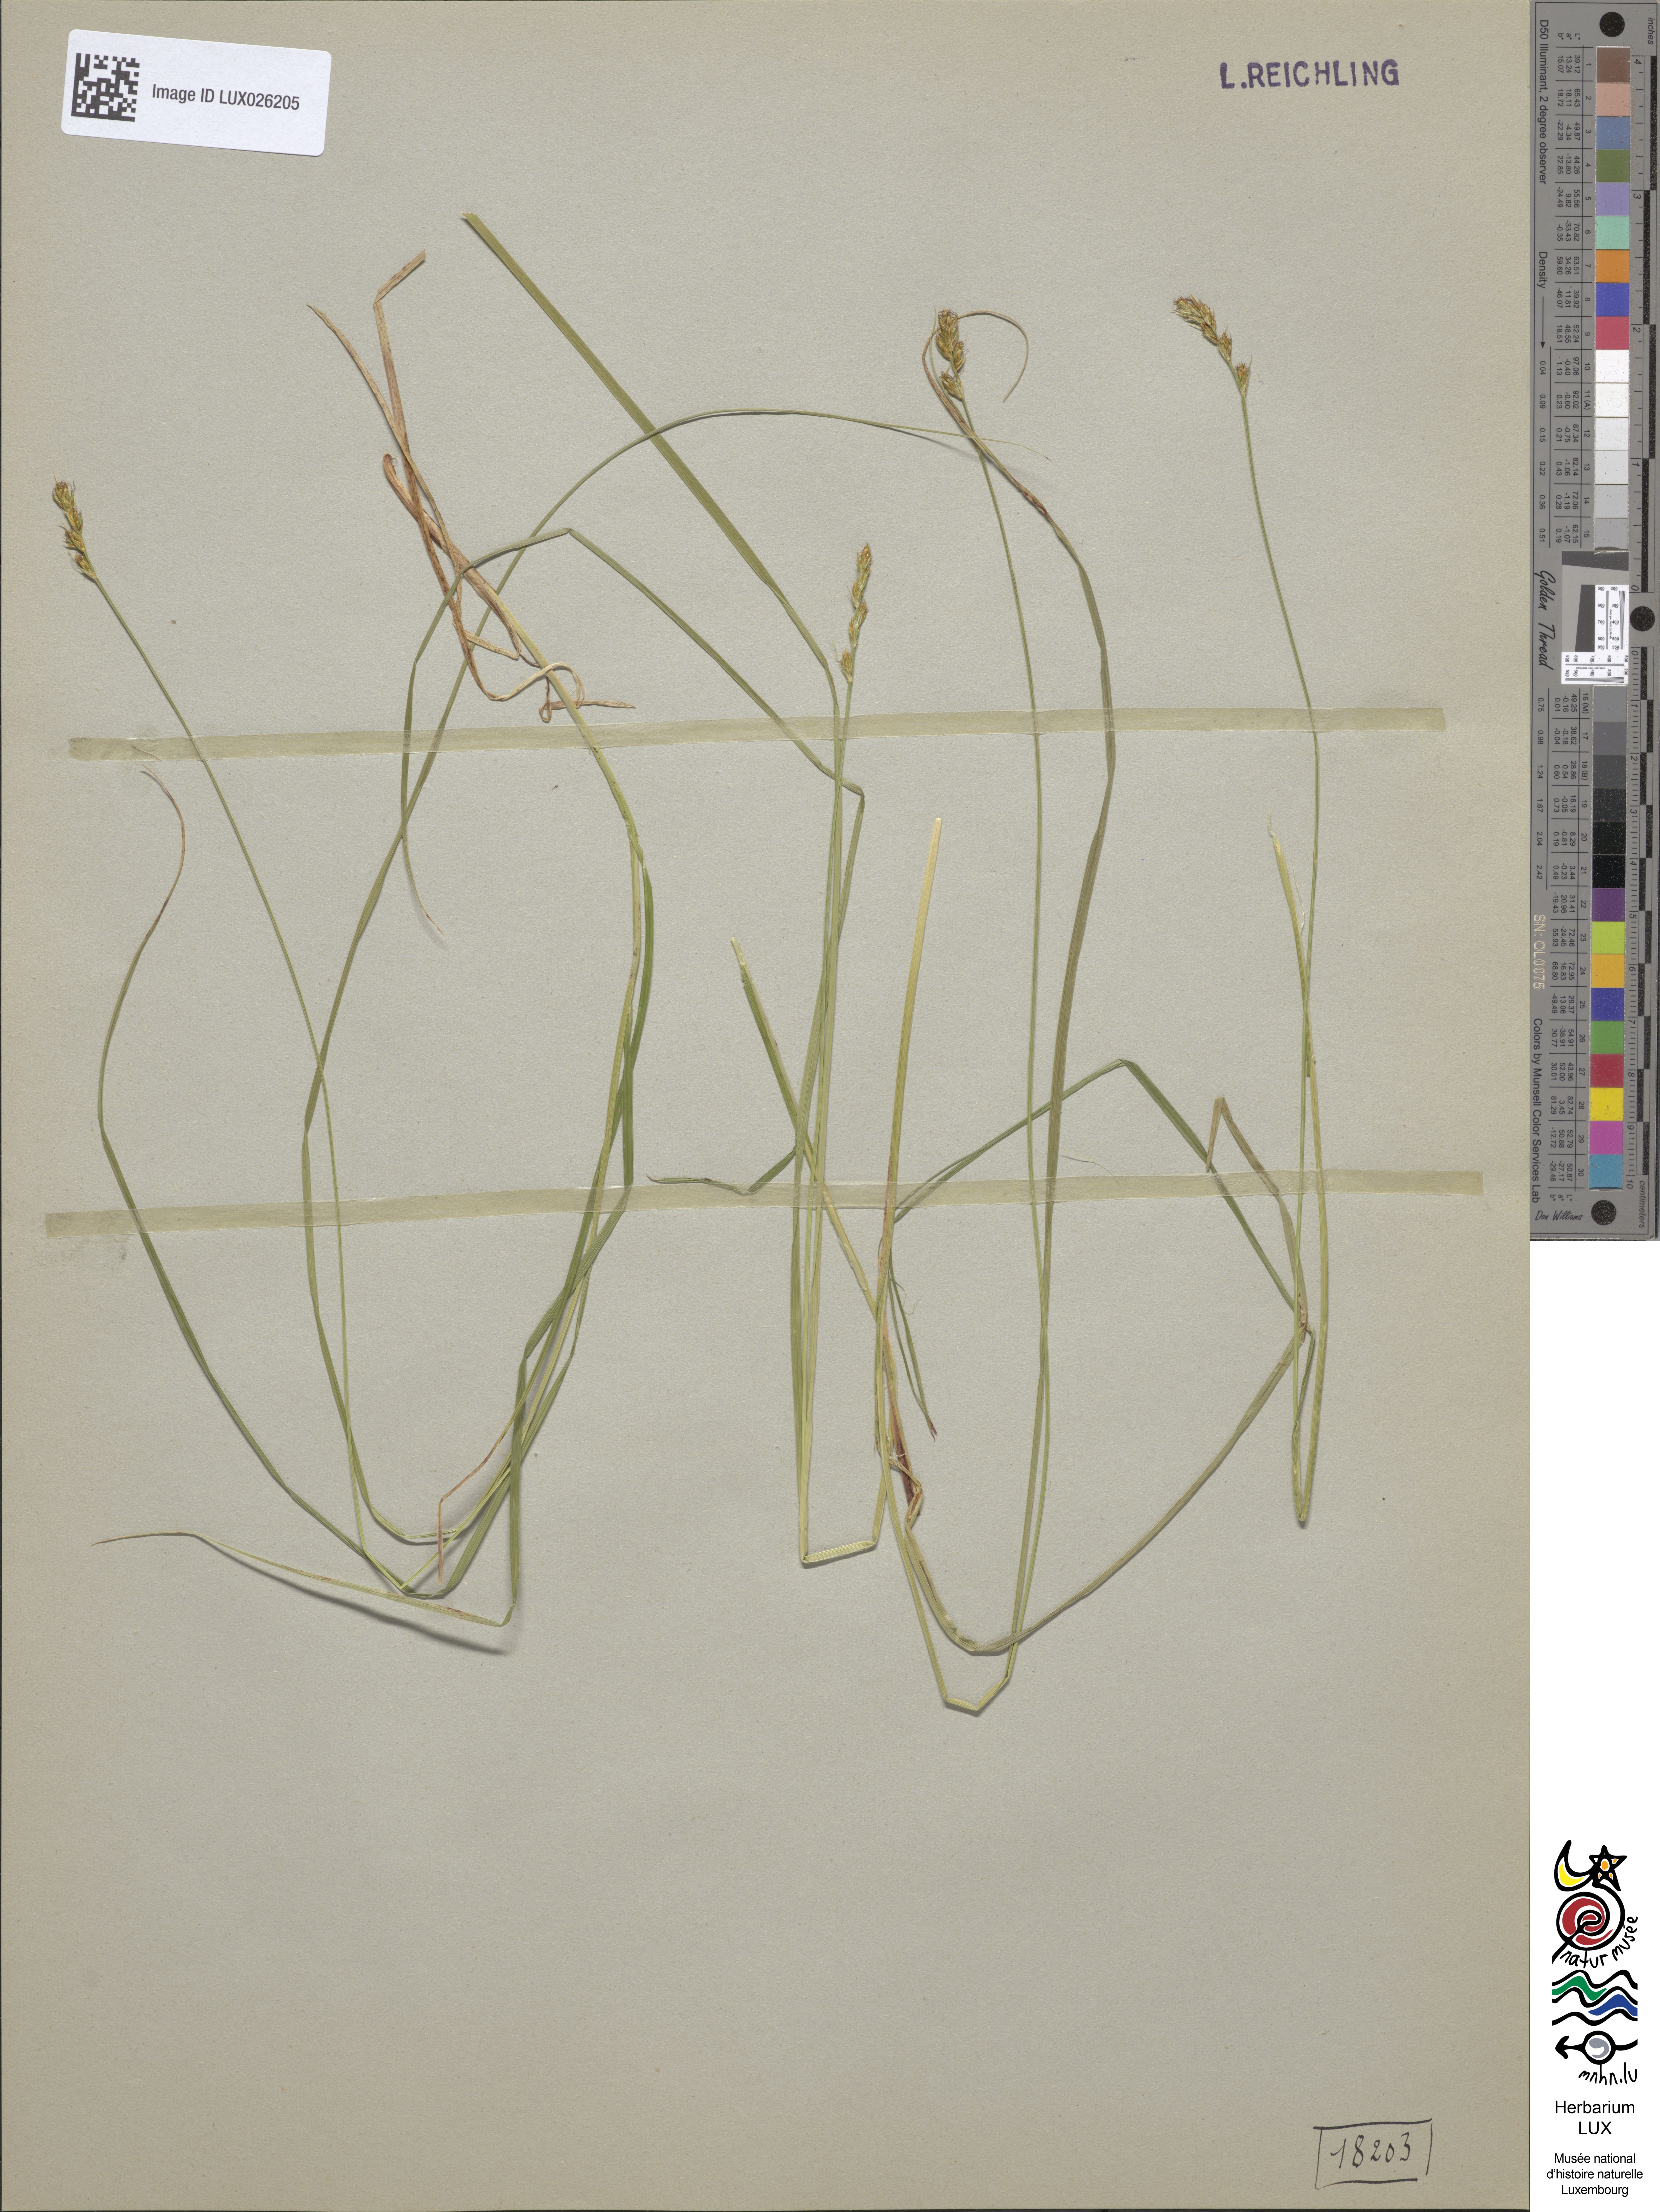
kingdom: Plantae
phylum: Tracheophyta
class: Liliopsida
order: Poales
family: Cyperaceae
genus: Carex
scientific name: Carex spicata
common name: Spiked sedge
